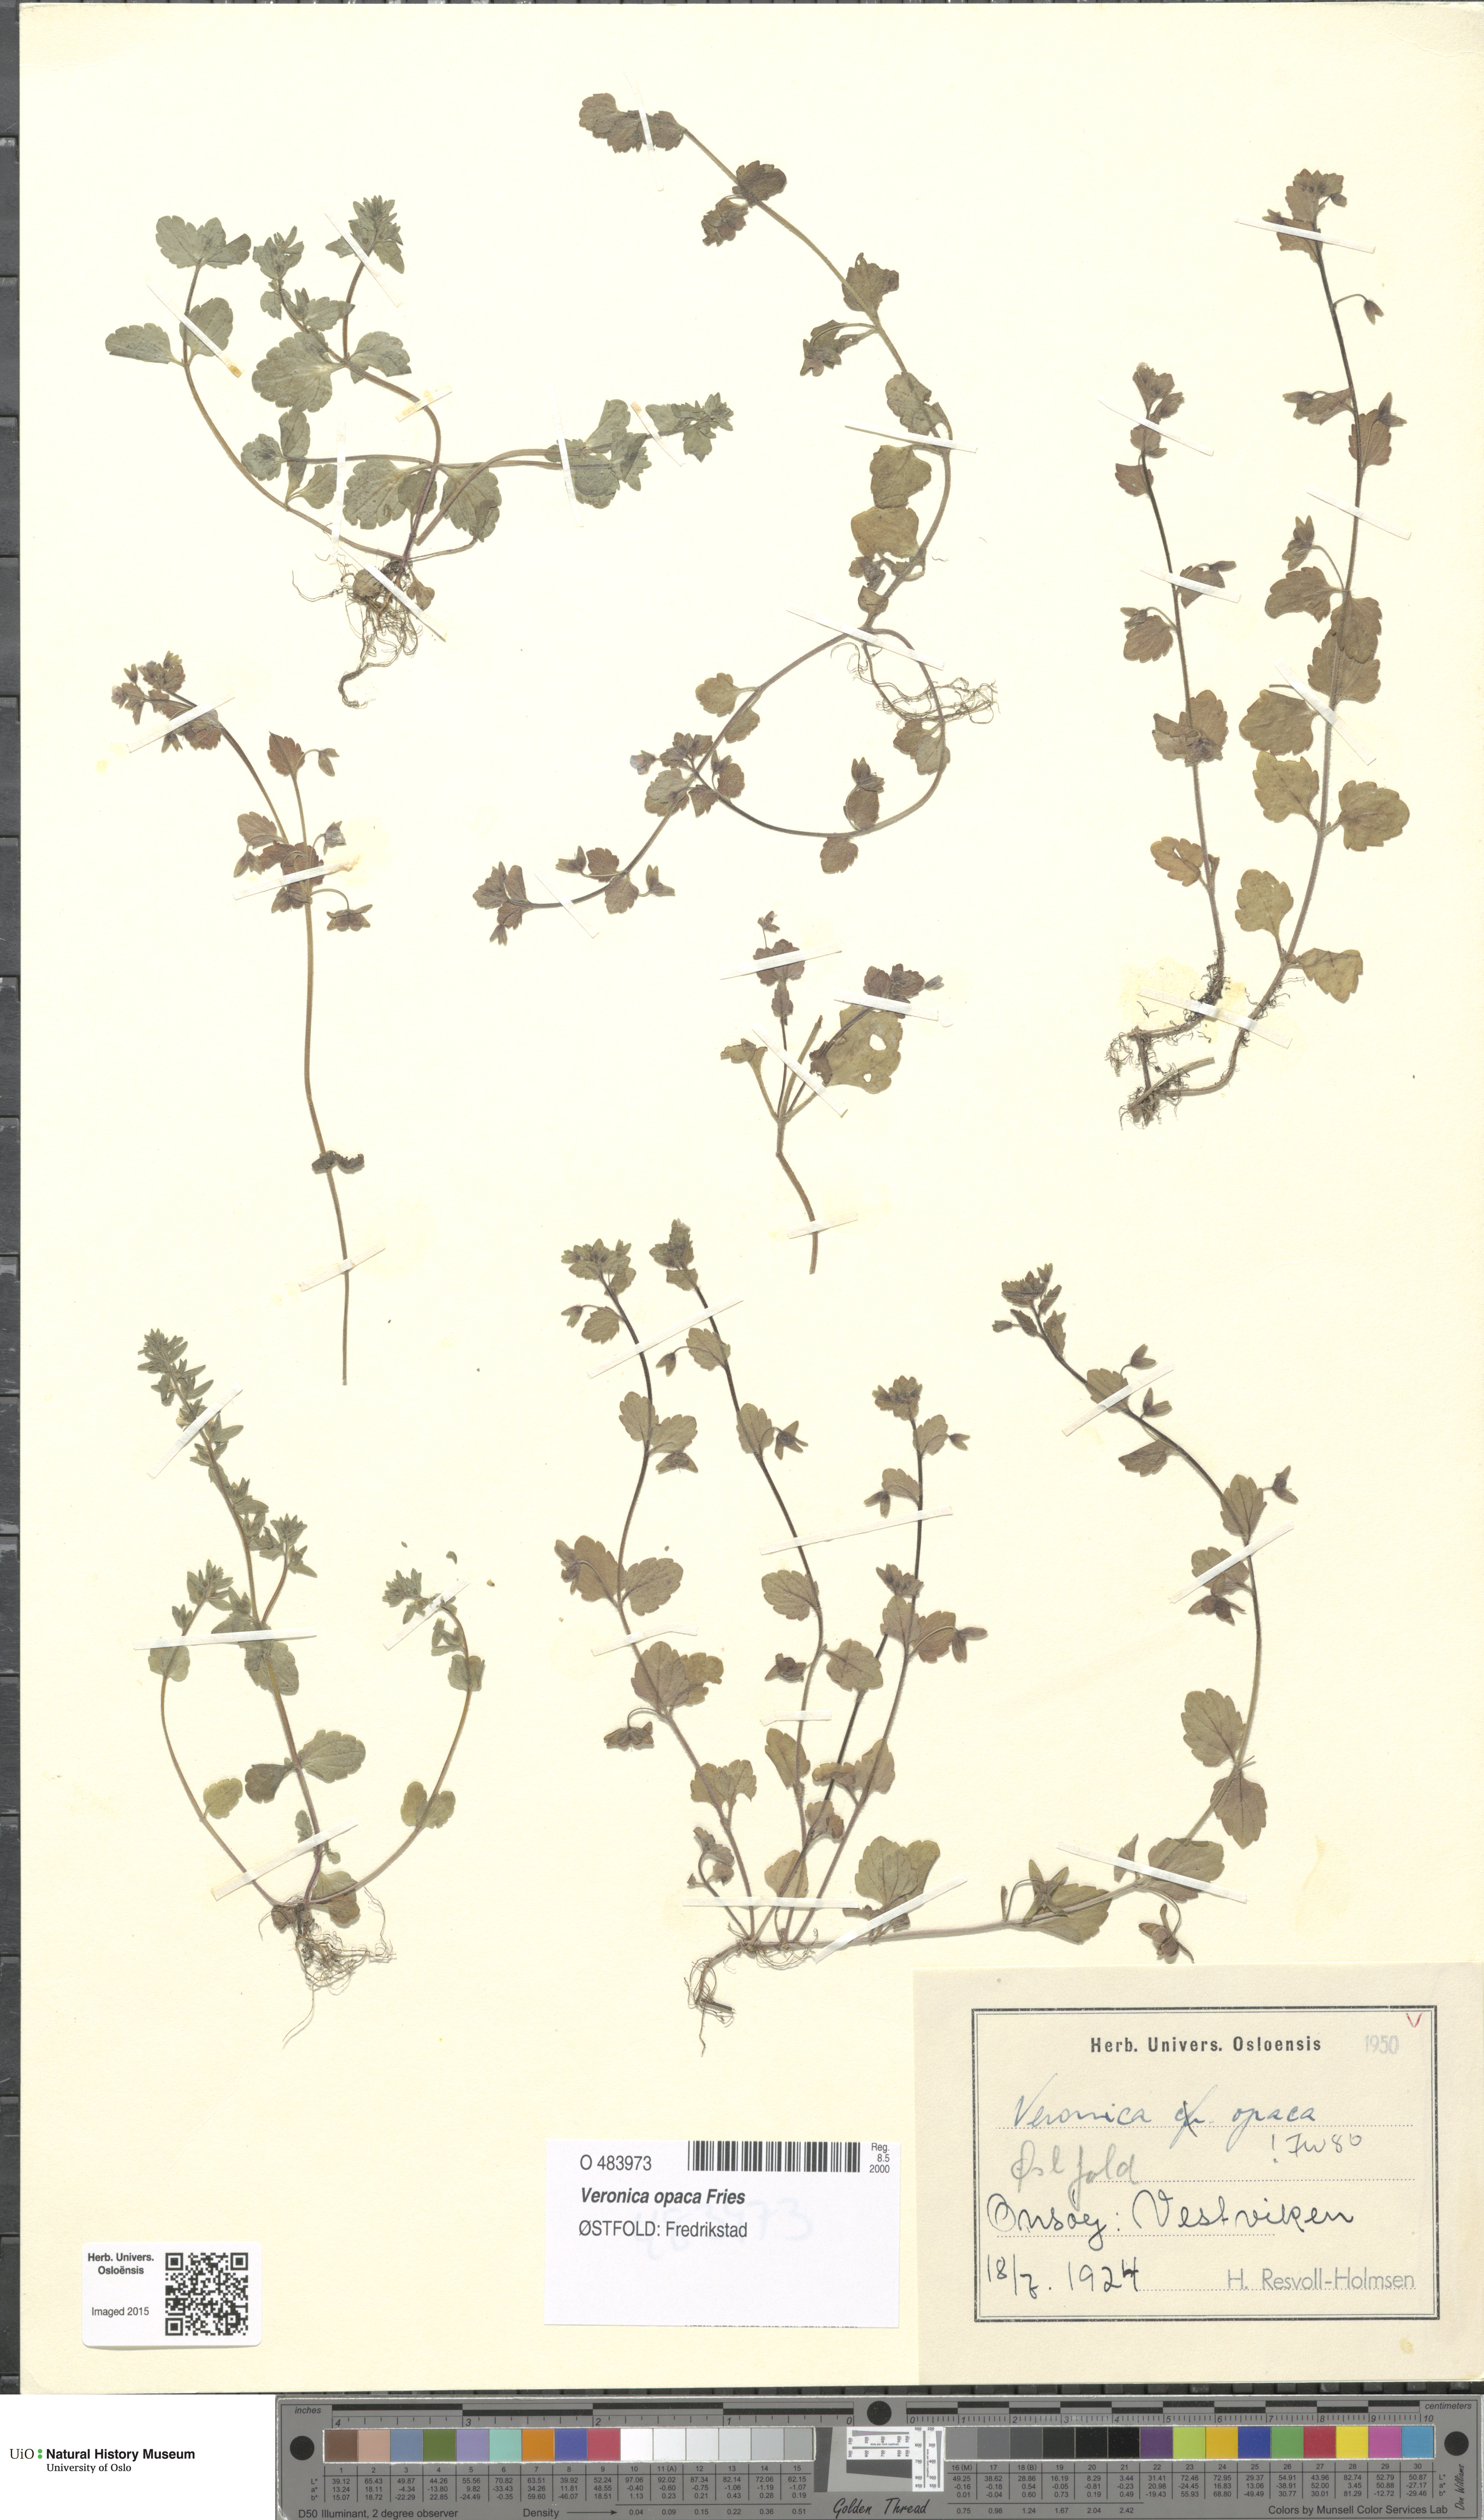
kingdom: Plantae
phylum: Tracheophyta
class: Magnoliopsida
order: Lamiales
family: Plantaginaceae
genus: Veronica
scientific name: Veronica opaca
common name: Dark speedwell
